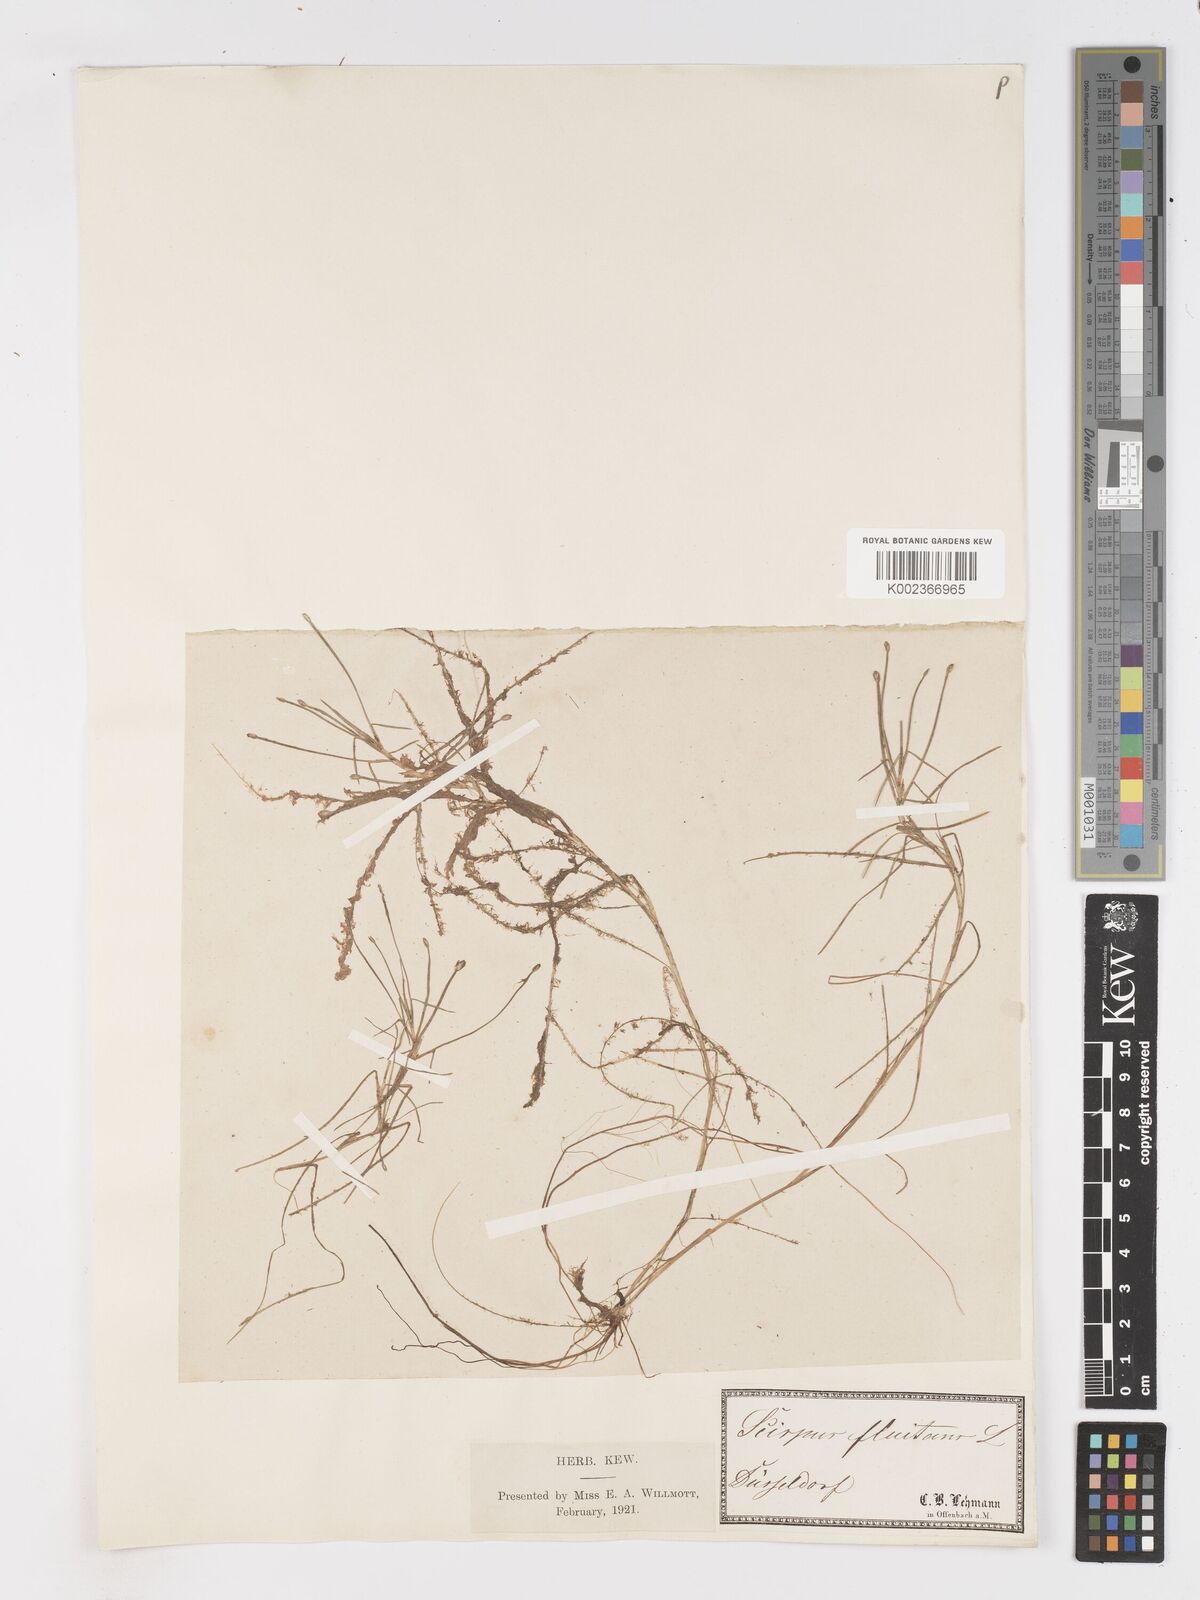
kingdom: Plantae
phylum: Tracheophyta
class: Liliopsida
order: Poales
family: Cyperaceae
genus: Isolepis
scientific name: Isolepis fluitans
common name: Floating club-rush
